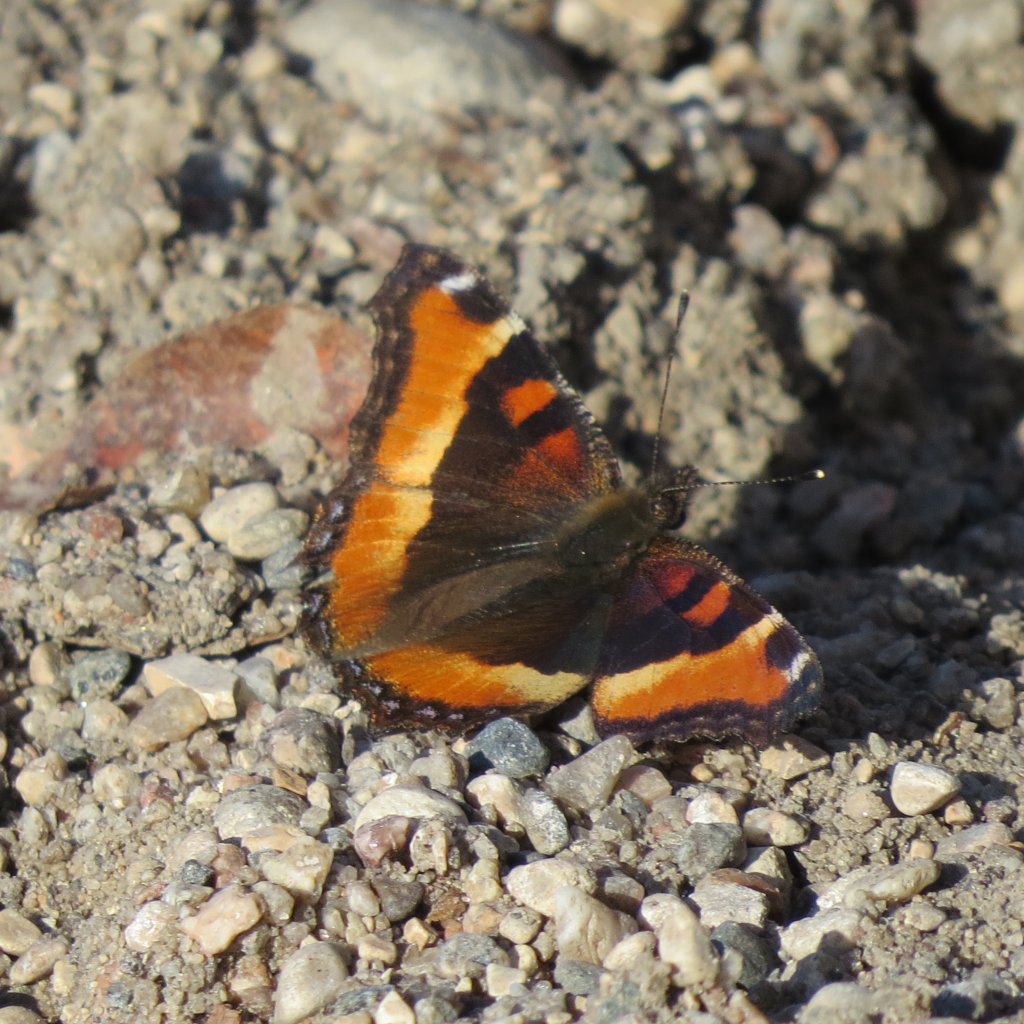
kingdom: Animalia
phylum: Arthropoda
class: Insecta
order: Lepidoptera
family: Nymphalidae
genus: Aglais
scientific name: Aglais milberti
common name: Milbert's Tortoiseshell
